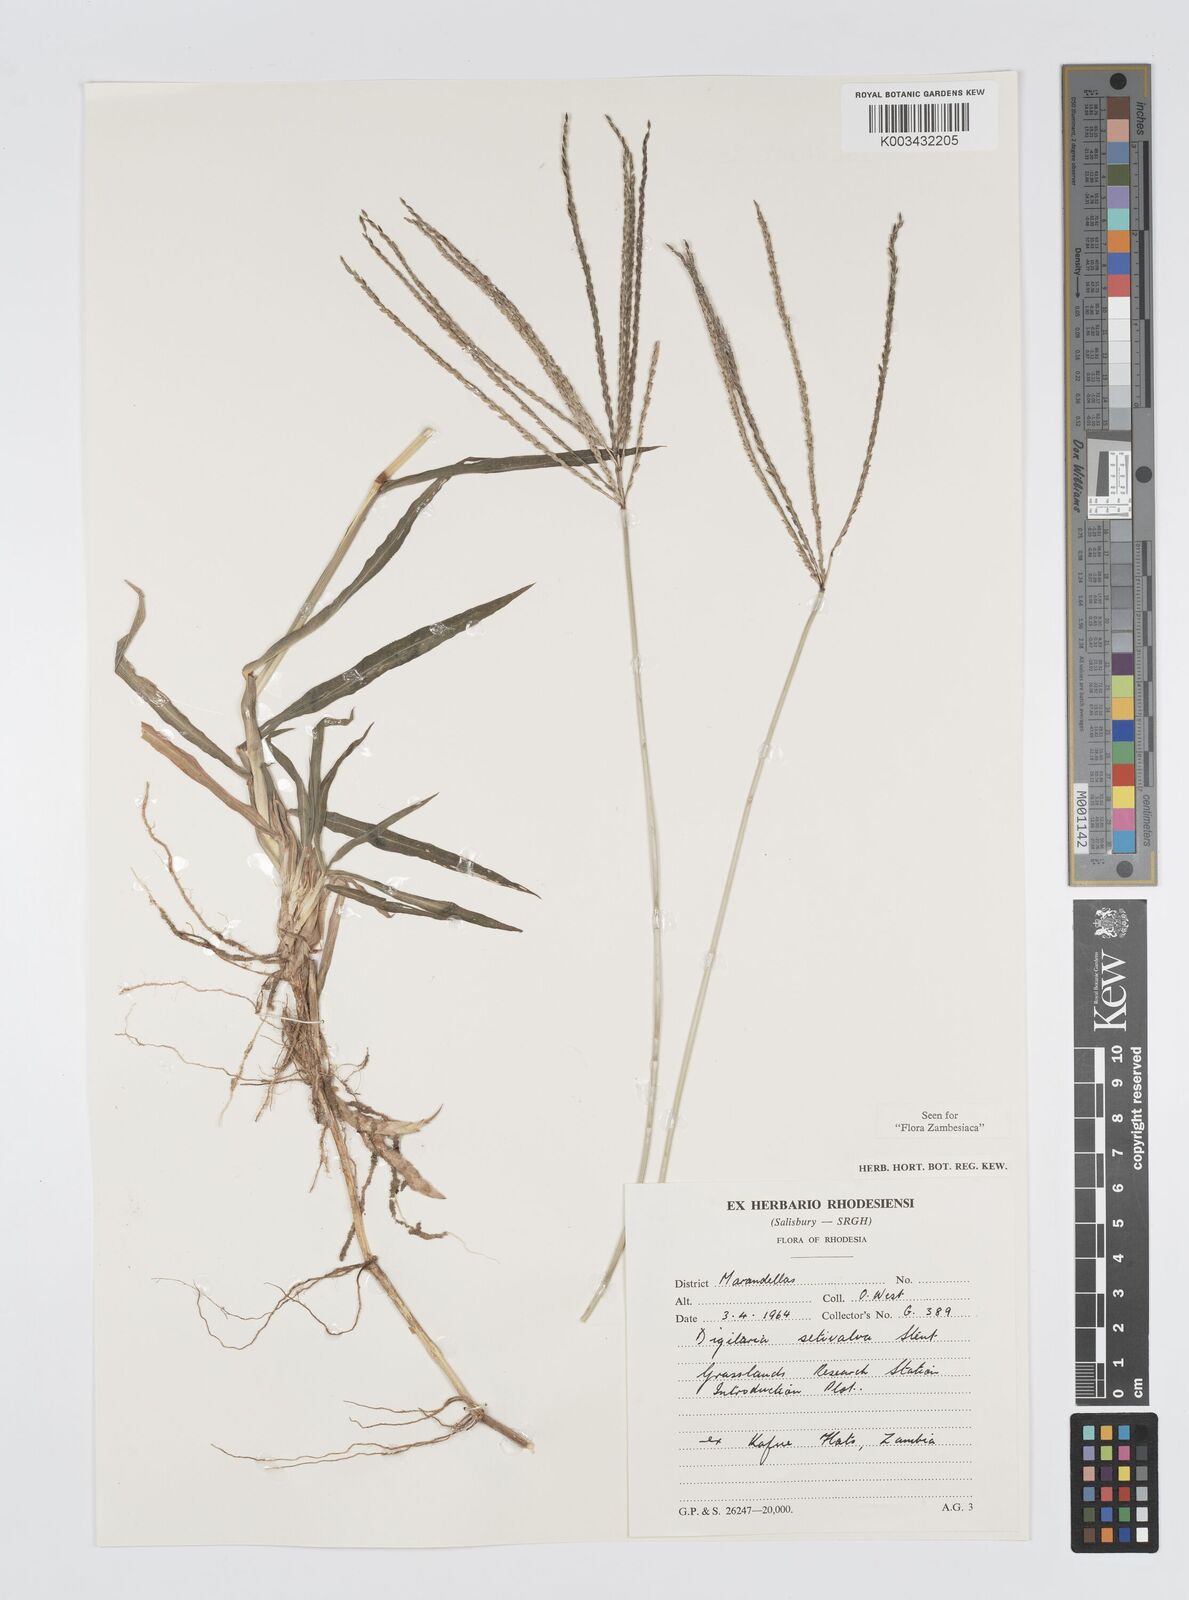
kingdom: Plantae
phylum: Tracheophyta
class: Liliopsida
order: Poales
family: Poaceae
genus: Digitaria
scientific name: Digitaria milanjiana
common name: Madagascar crabgrass
